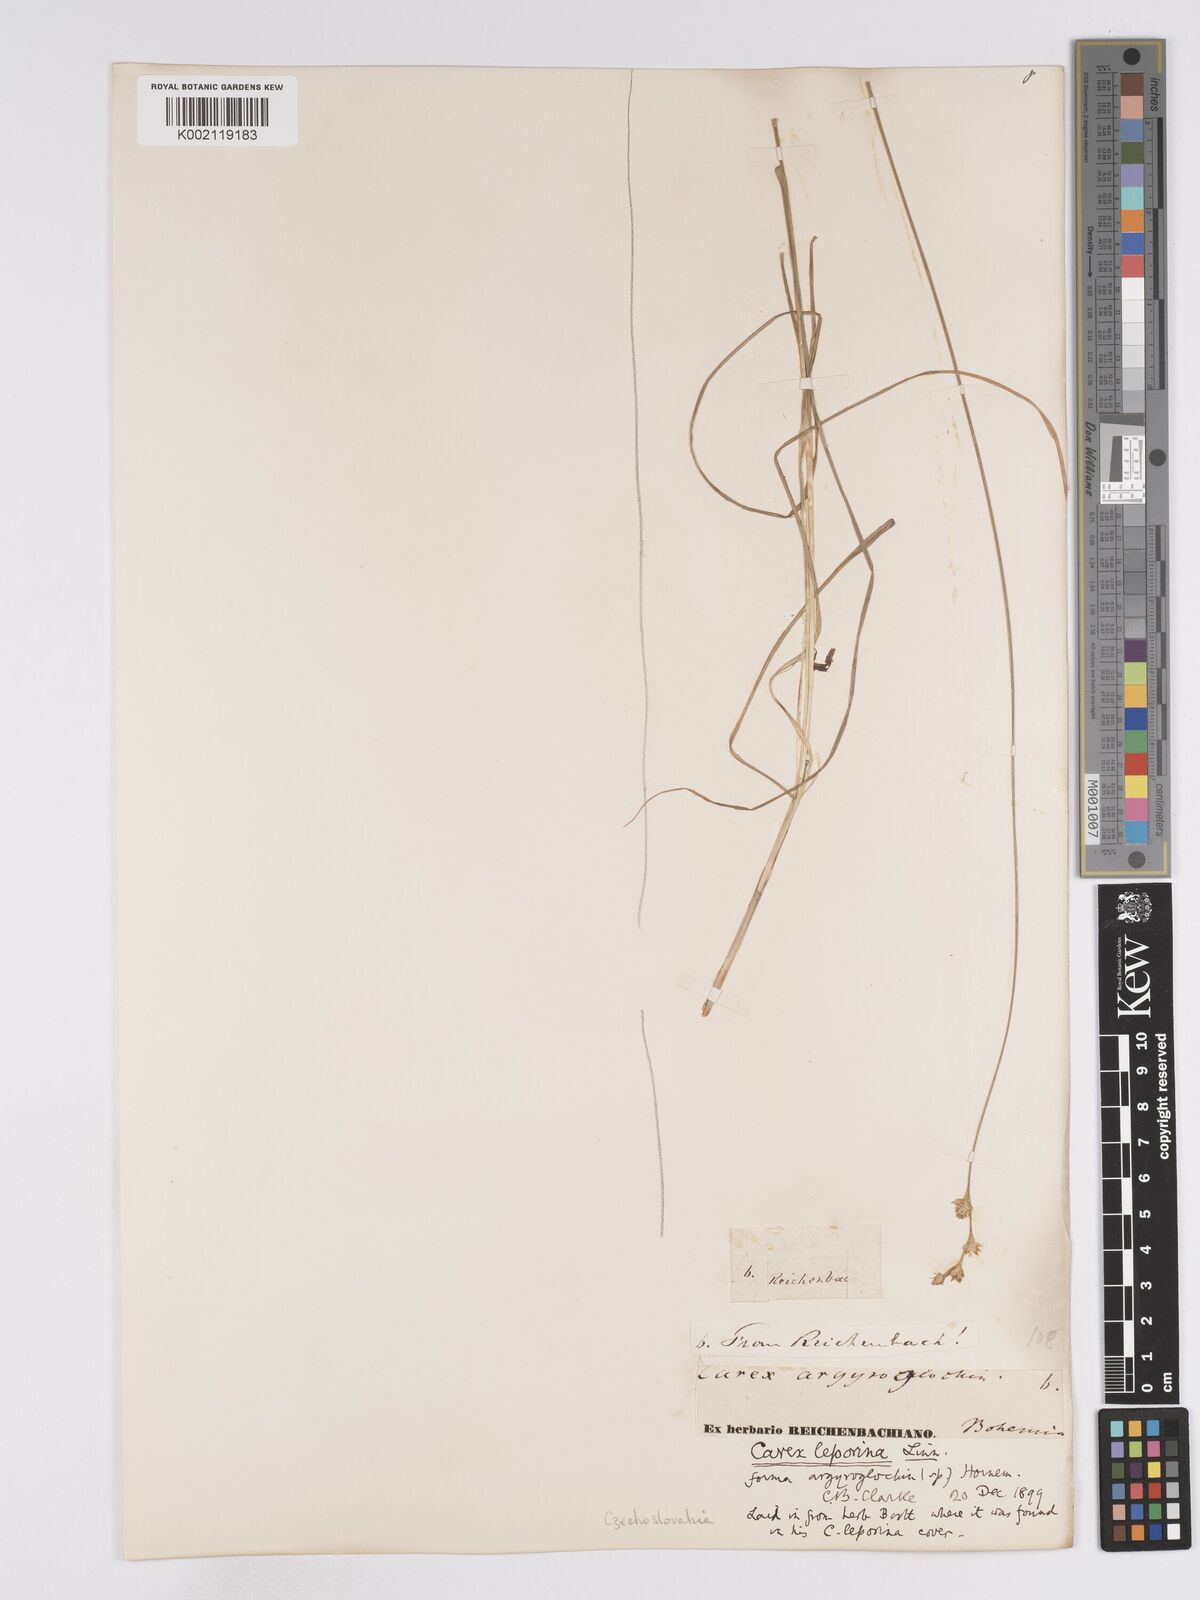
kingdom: Plantae
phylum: Tracheophyta
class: Liliopsida
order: Poales
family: Cyperaceae
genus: Carex
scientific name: Carex leporina
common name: Oval sedge
